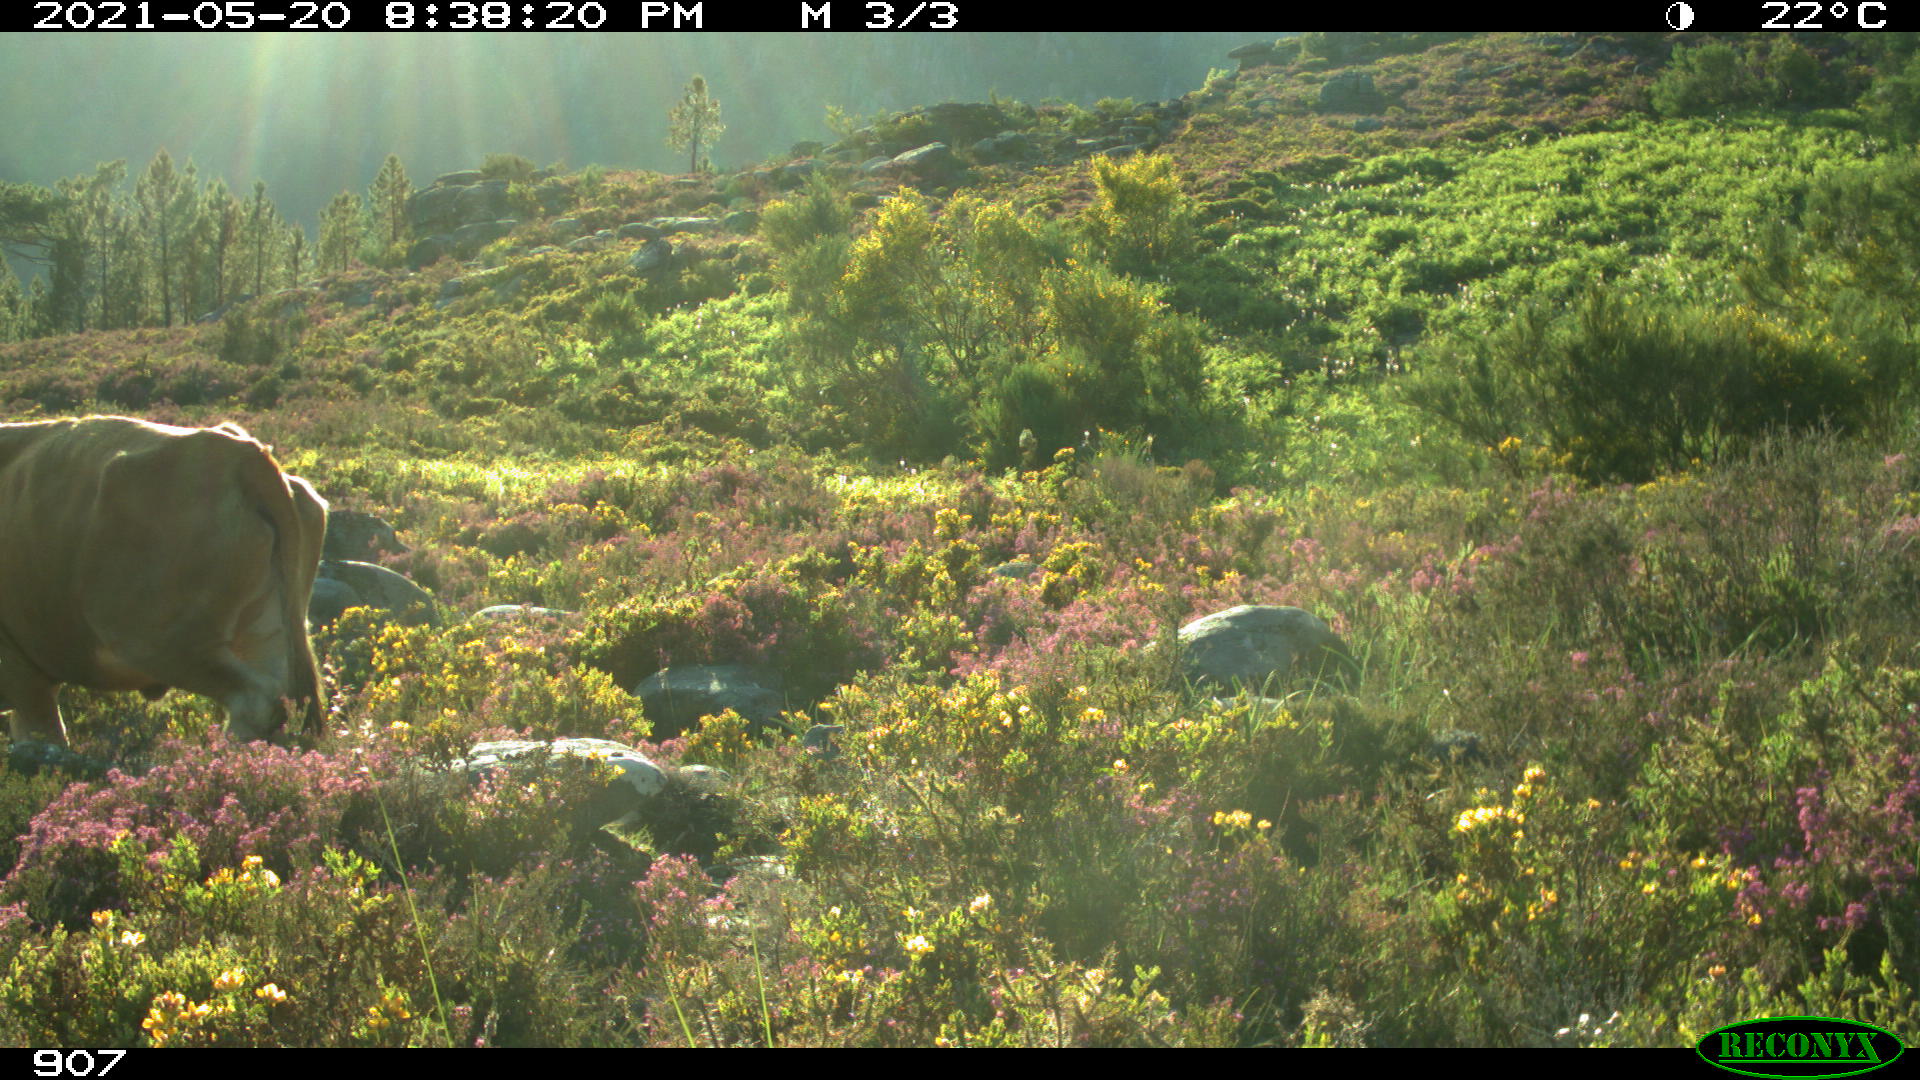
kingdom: Animalia
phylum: Chordata
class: Mammalia
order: Artiodactyla
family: Bovidae
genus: Bos
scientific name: Bos taurus
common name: Domesticated cattle
